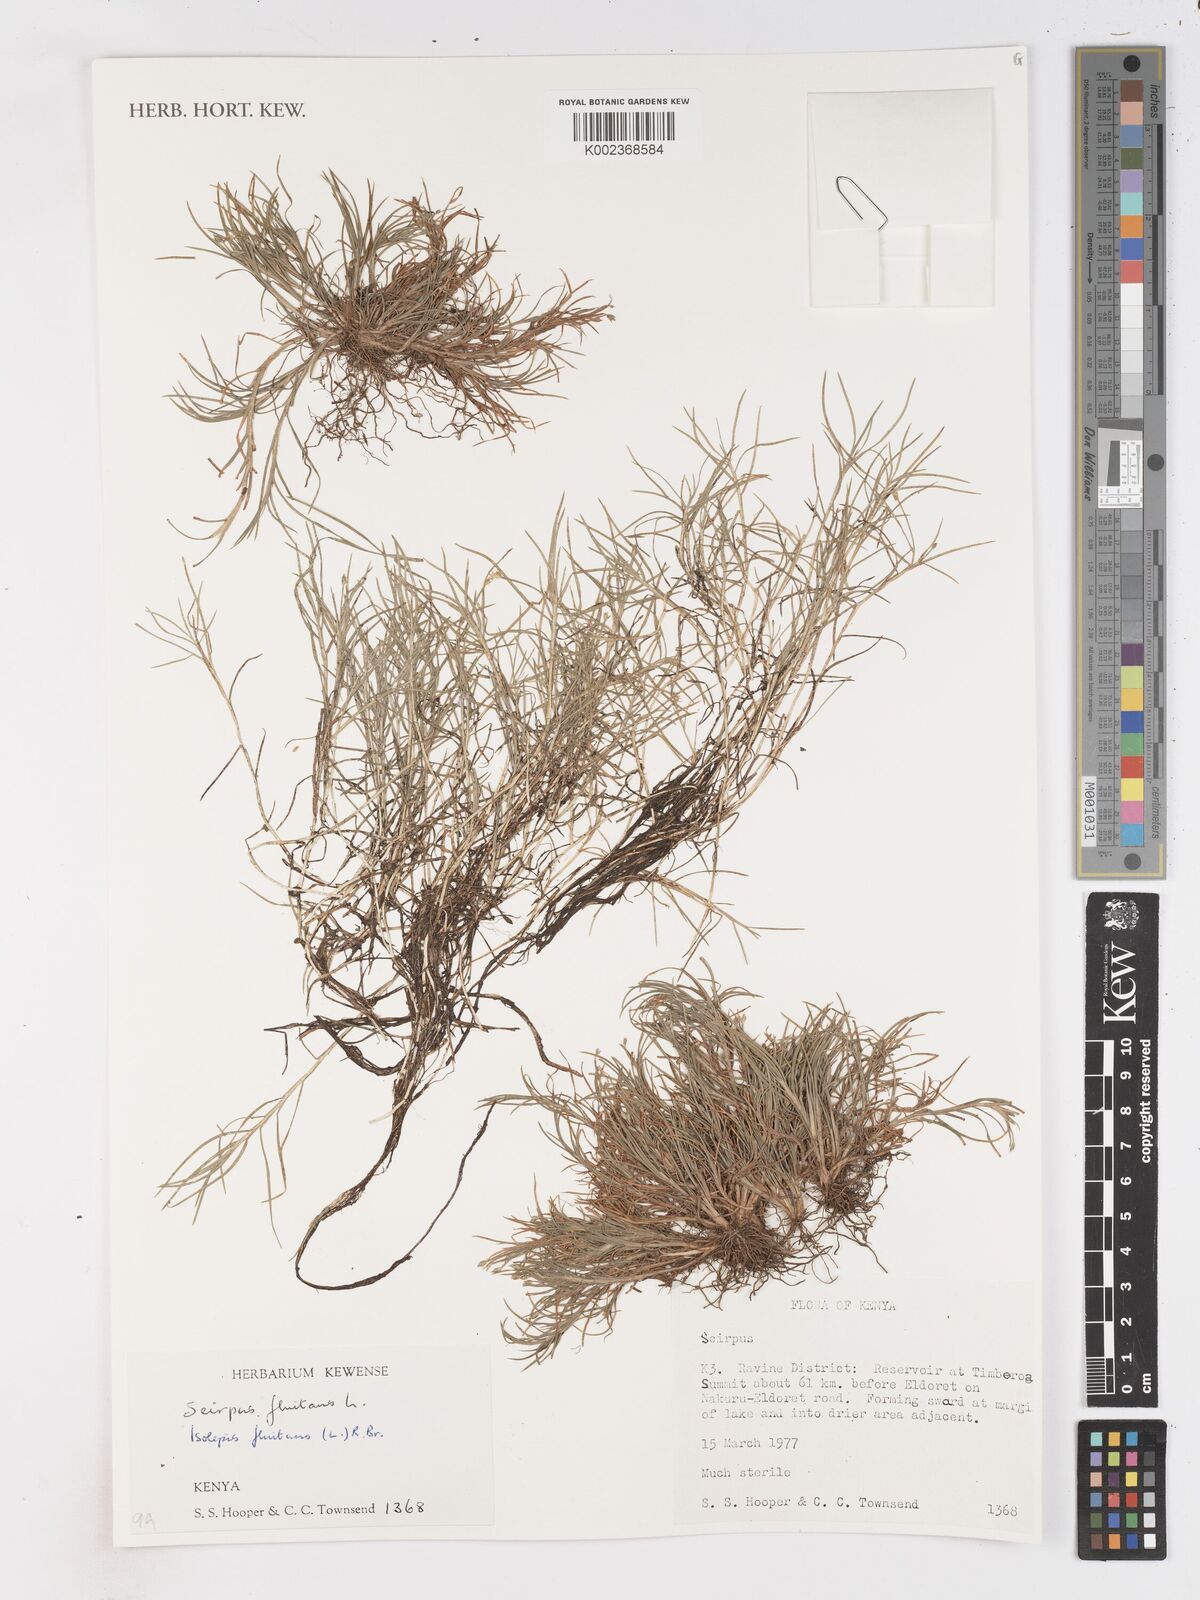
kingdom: Plantae
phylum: Tracheophyta
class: Liliopsida
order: Poales
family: Cyperaceae
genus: Isolepis
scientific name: Isolepis fluitans
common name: Floating club-rush
